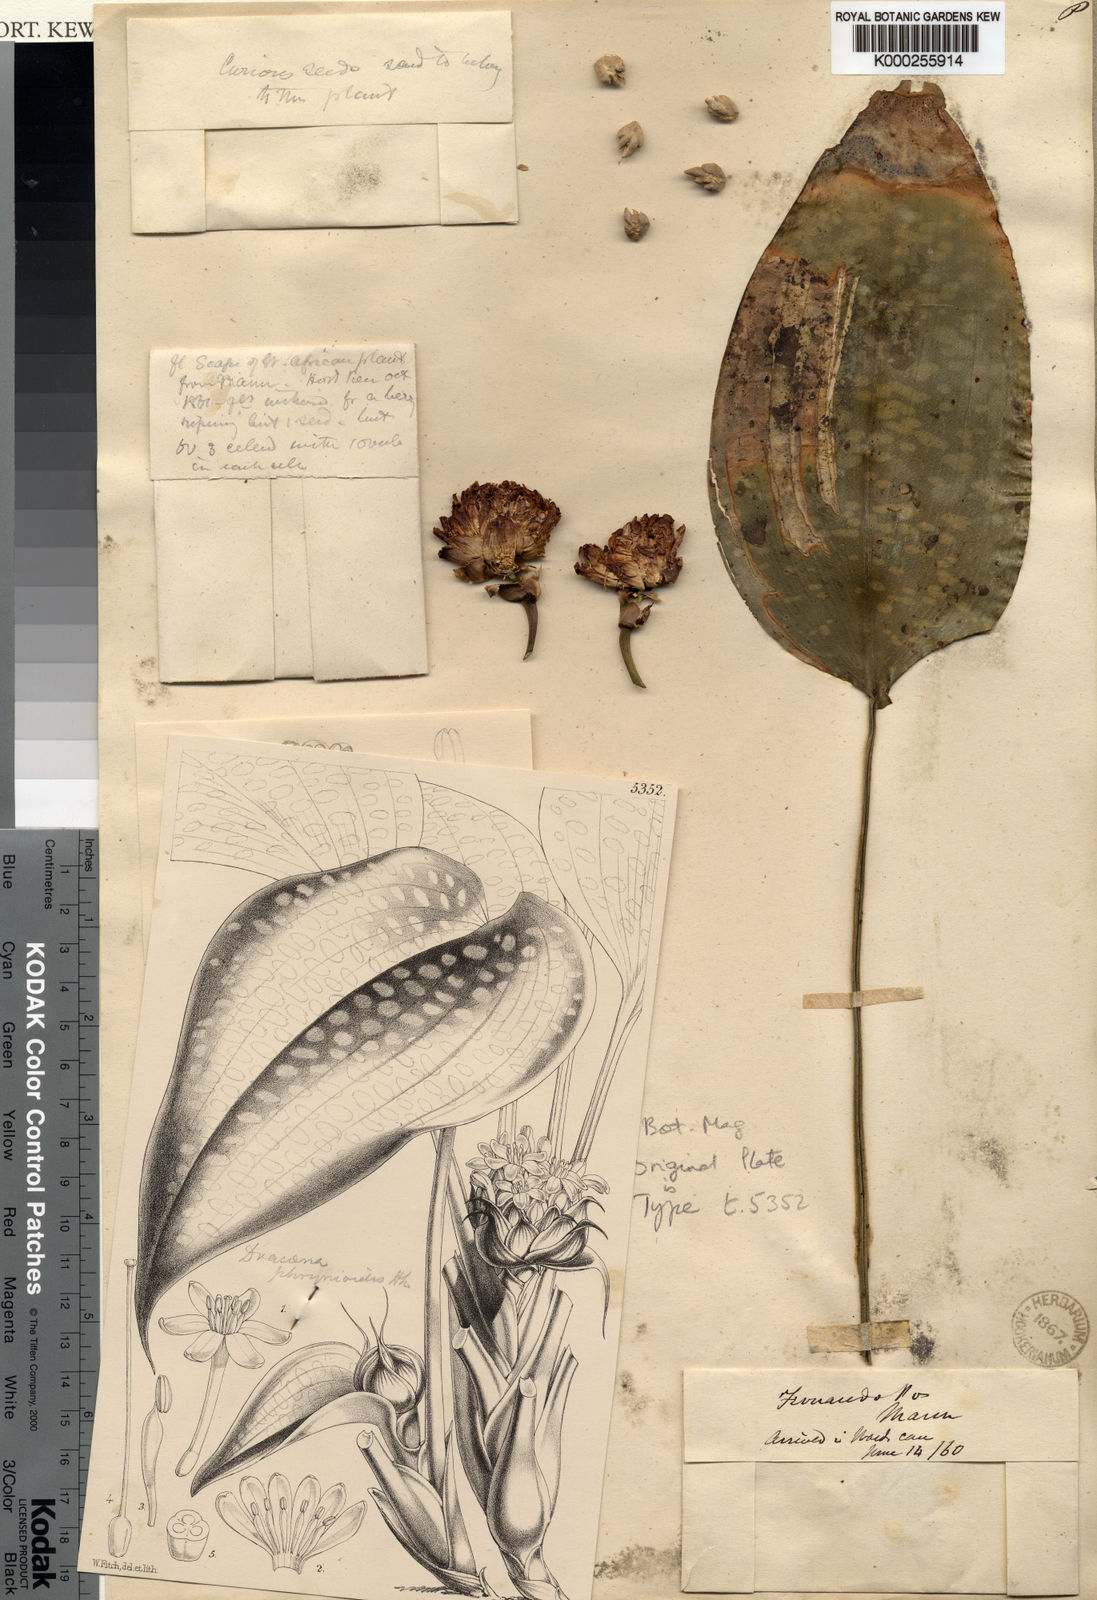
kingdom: Plantae
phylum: Tracheophyta
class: Liliopsida
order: Asparagales
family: Asparagaceae
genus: Dracaena
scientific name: Dracaena phrynioides
